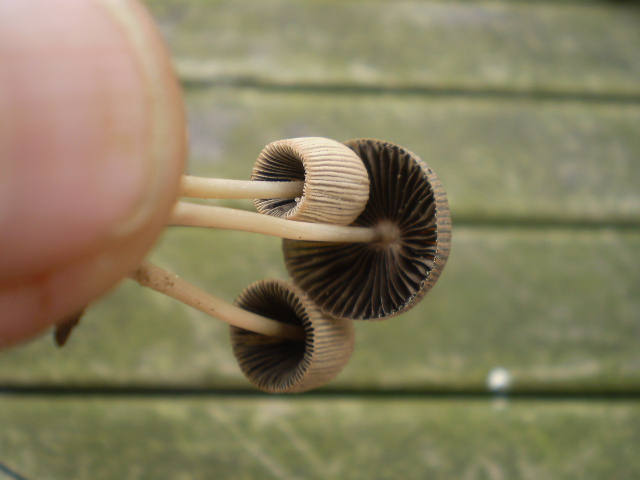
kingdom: Fungi
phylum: Basidiomycota
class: Agaricomycetes
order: Agaricales
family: Psathyrellaceae
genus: Parasola
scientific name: Parasola kuehneri
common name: skygge-hjulhat
